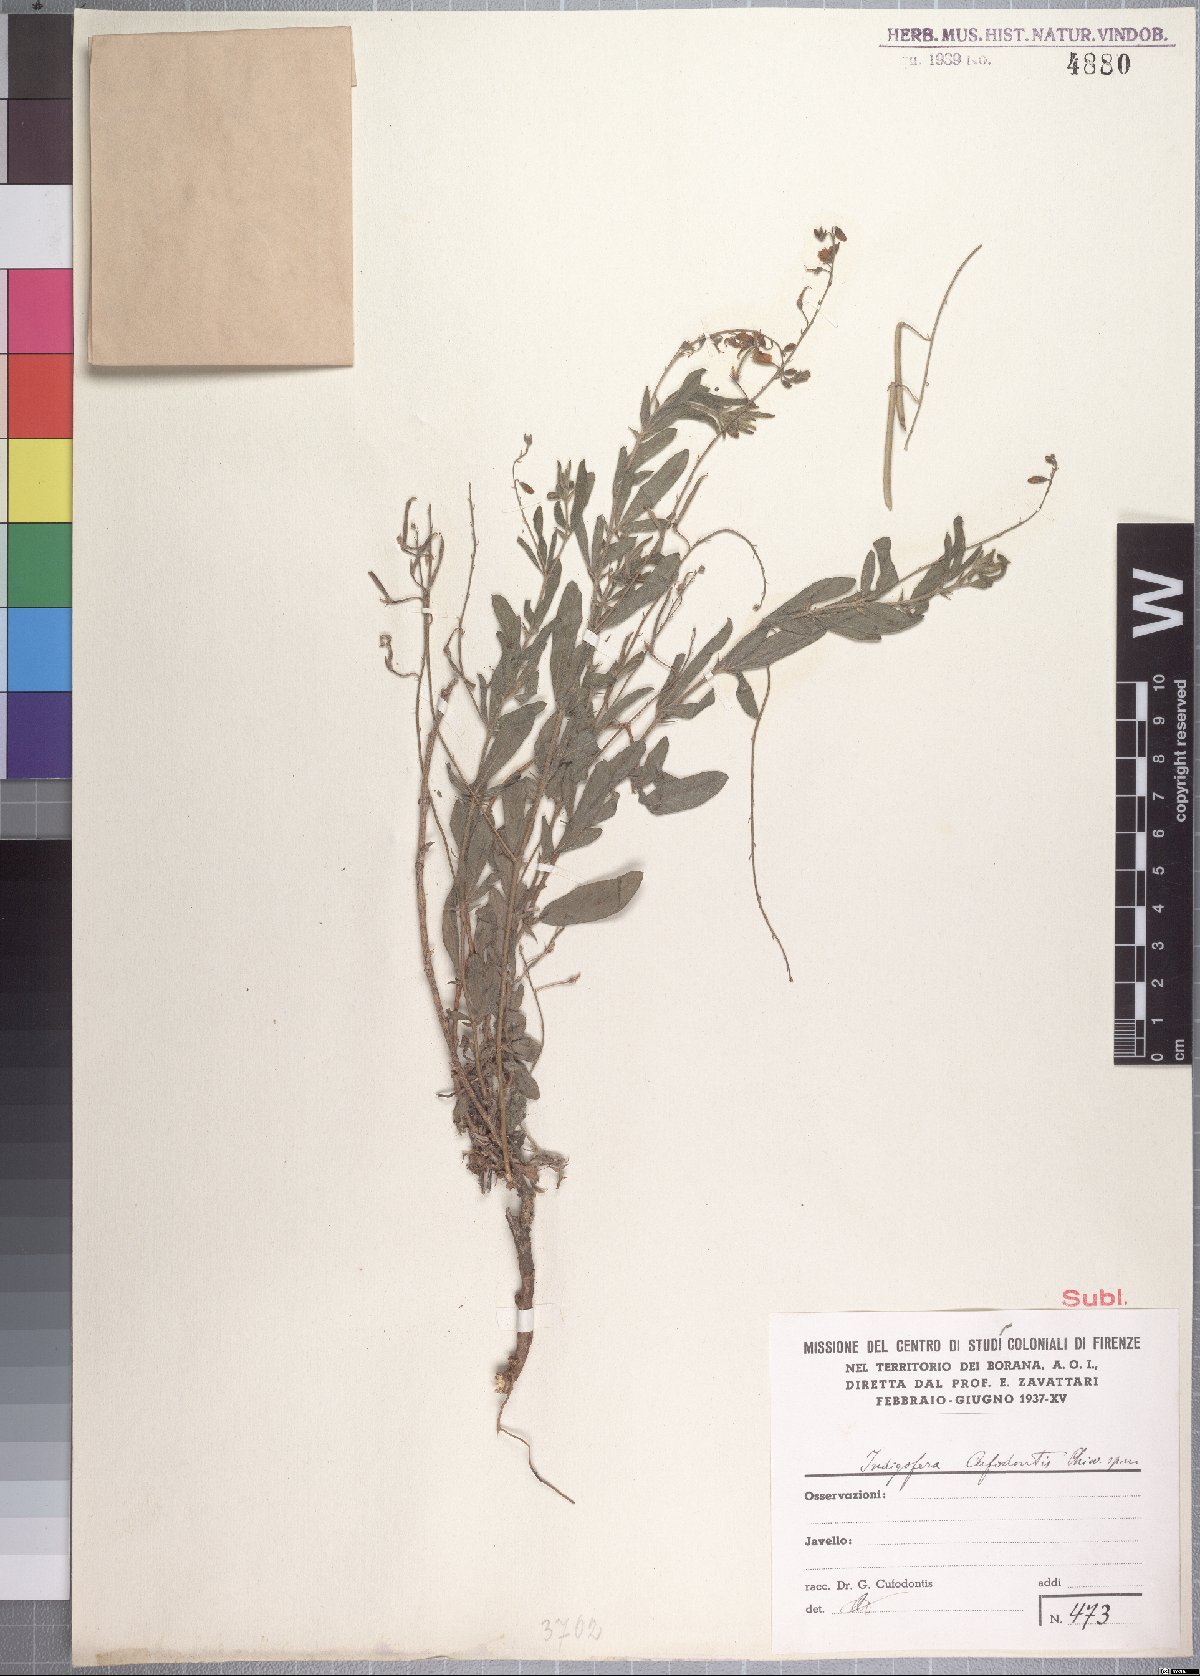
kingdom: Plantae
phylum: Tracheophyta
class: Magnoliopsida
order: Fabales
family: Fabaceae
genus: Microcharis
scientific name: Microcharis cufodontii
